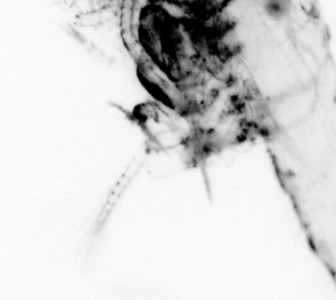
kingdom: Animalia
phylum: Arthropoda
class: Malacostraca
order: Decapoda
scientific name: Decapoda
